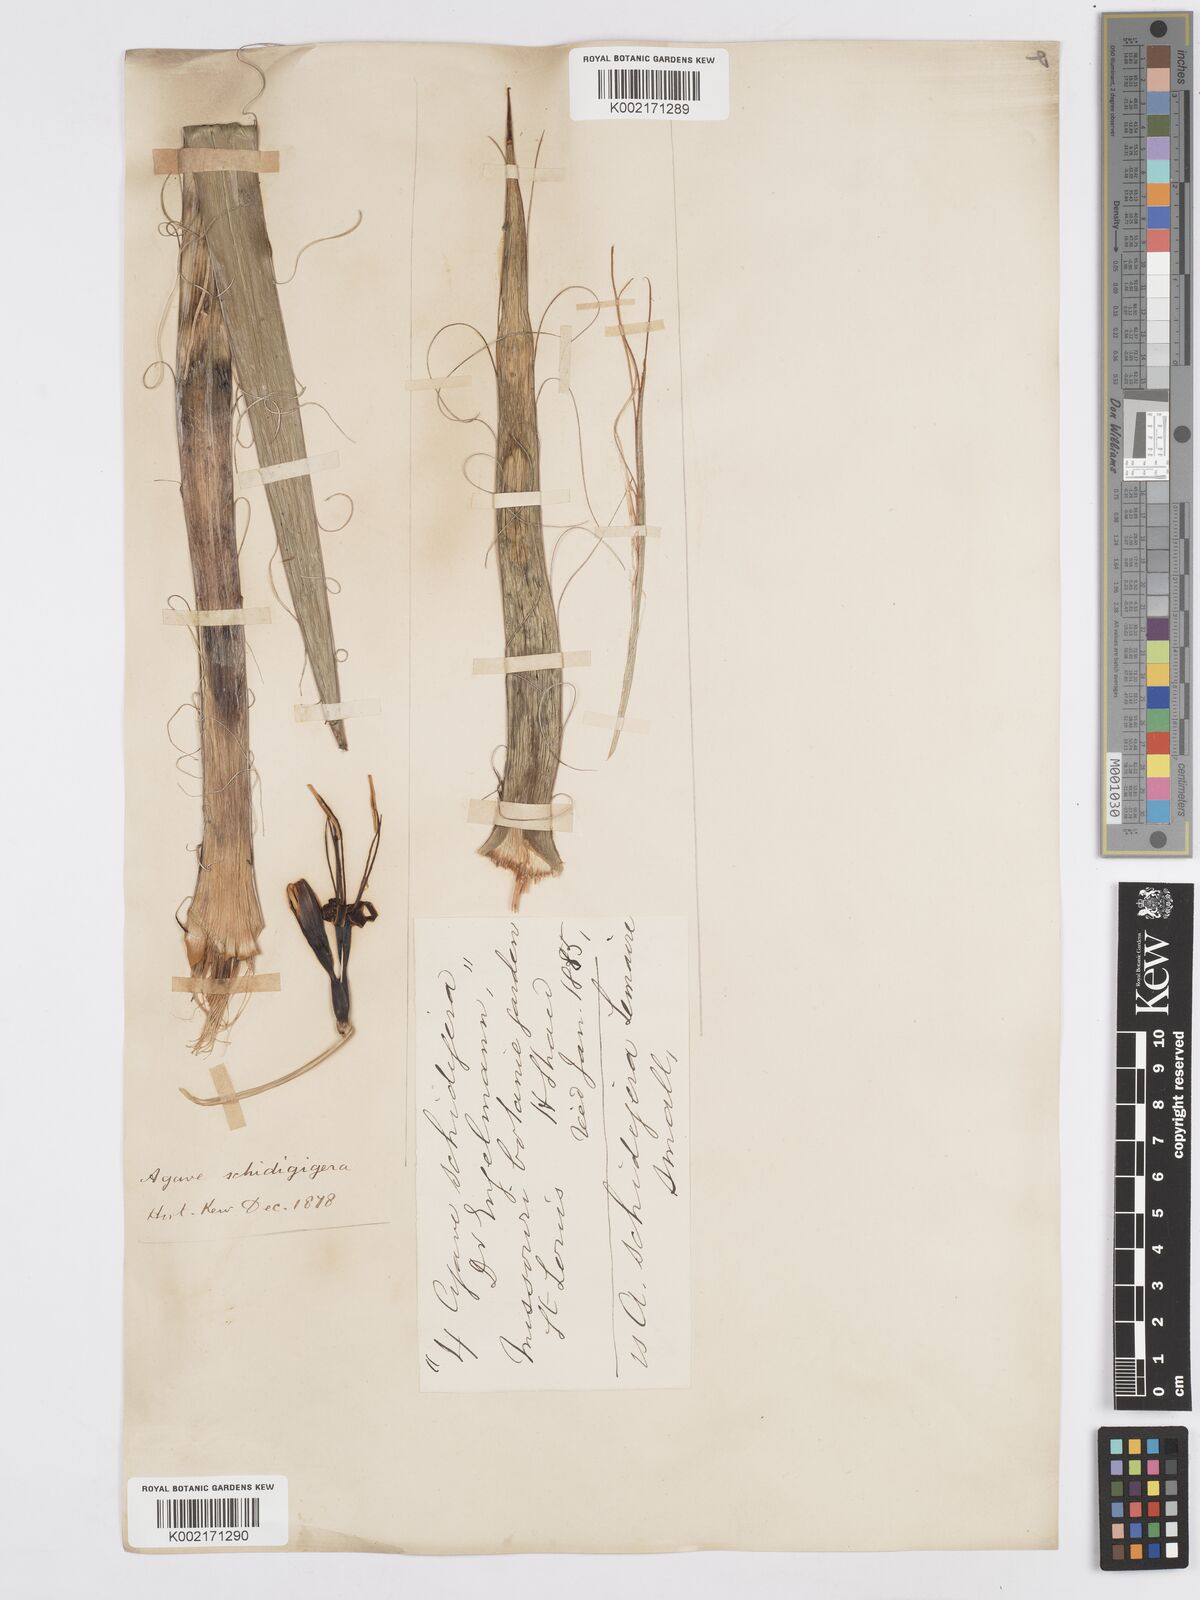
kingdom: Plantae
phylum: Tracheophyta
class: Liliopsida
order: Asparagales
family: Asparagaceae
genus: Agave
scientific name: Agave schidigera
